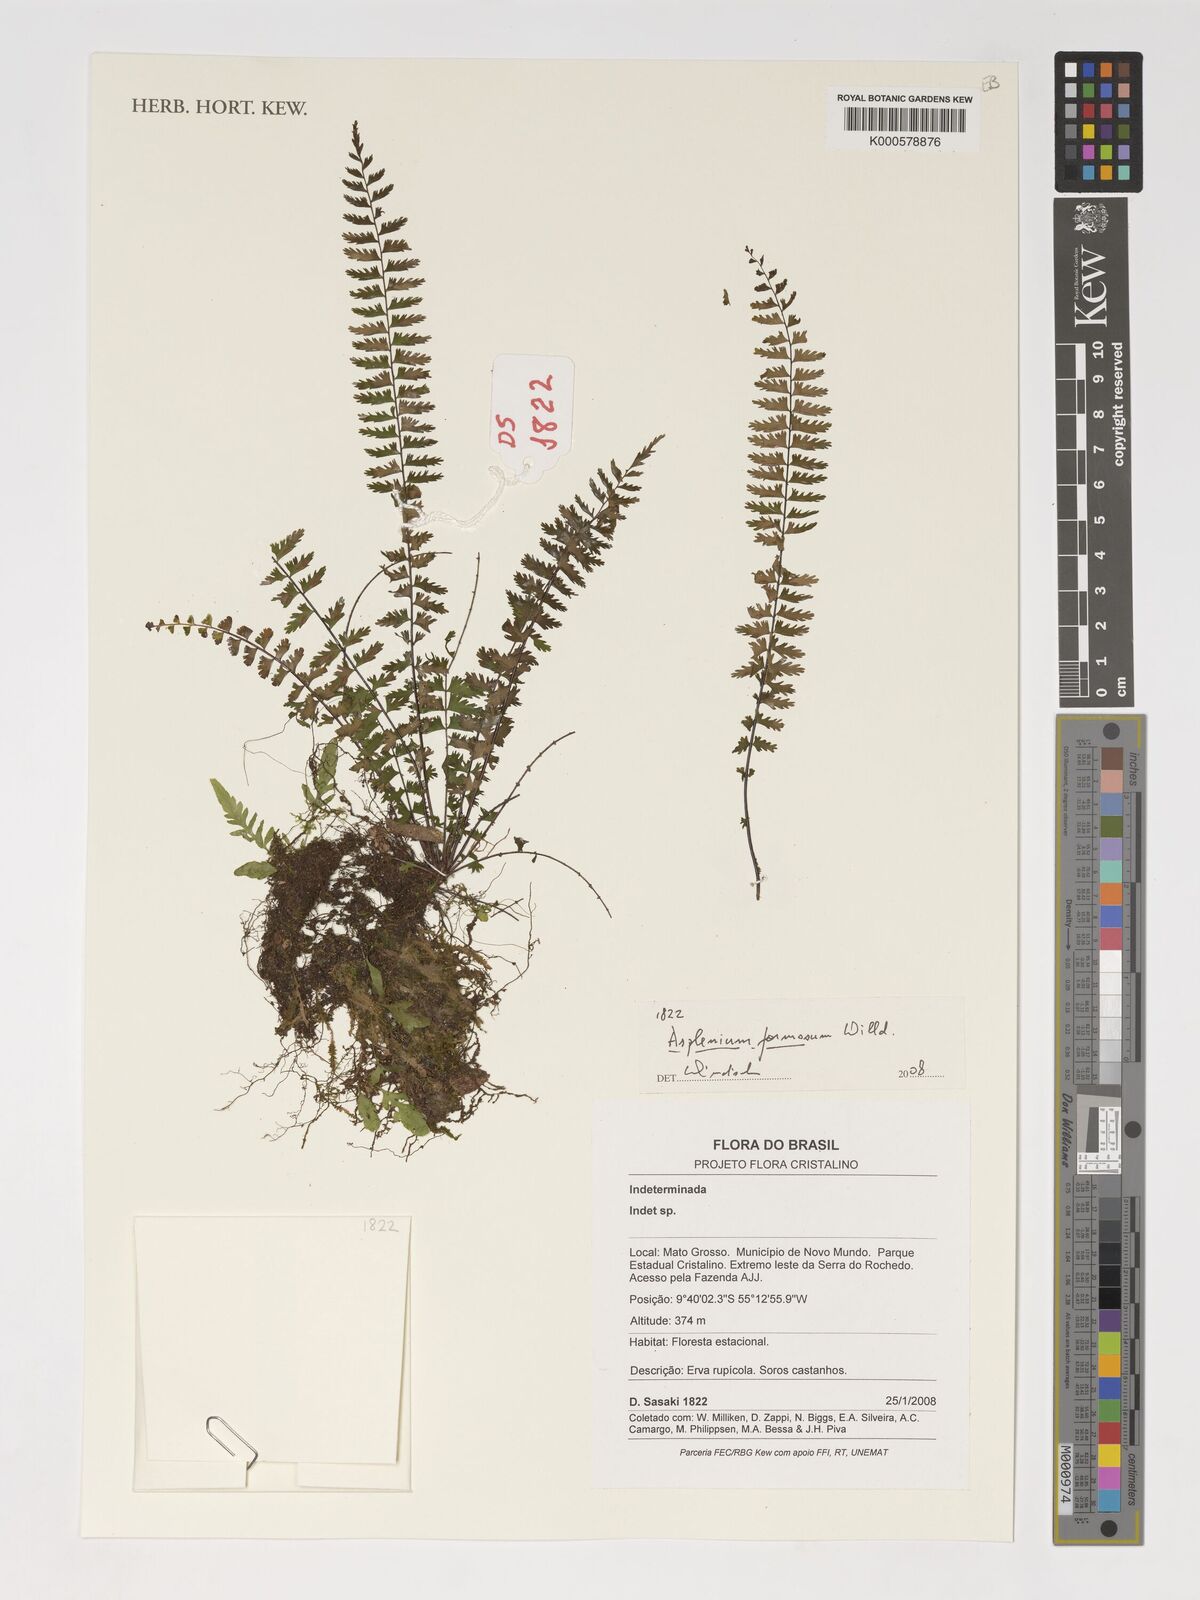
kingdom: Plantae
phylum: Tracheophyta
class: Polypodiopsida
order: Polypodiales
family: Aspleniaceae
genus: Asplenium
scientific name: Asplenium formosum
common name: Showy spleenwort
